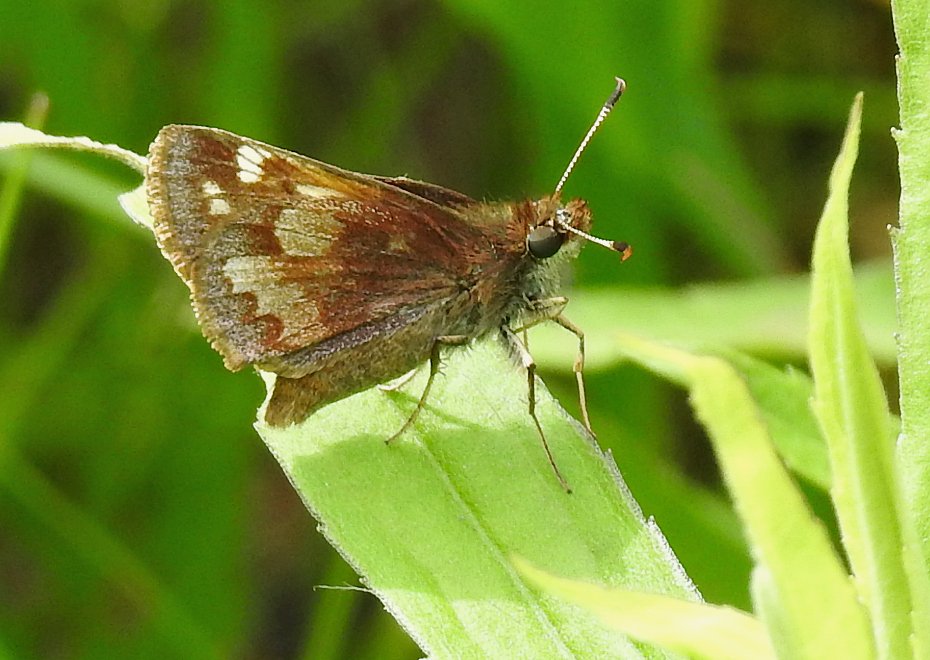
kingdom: Animalia
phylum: Arthropoda
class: Insecta
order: Lepidoptera
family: Hesperiidae
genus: Lon
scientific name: Lon hobomok
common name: Hobomok Skipper
